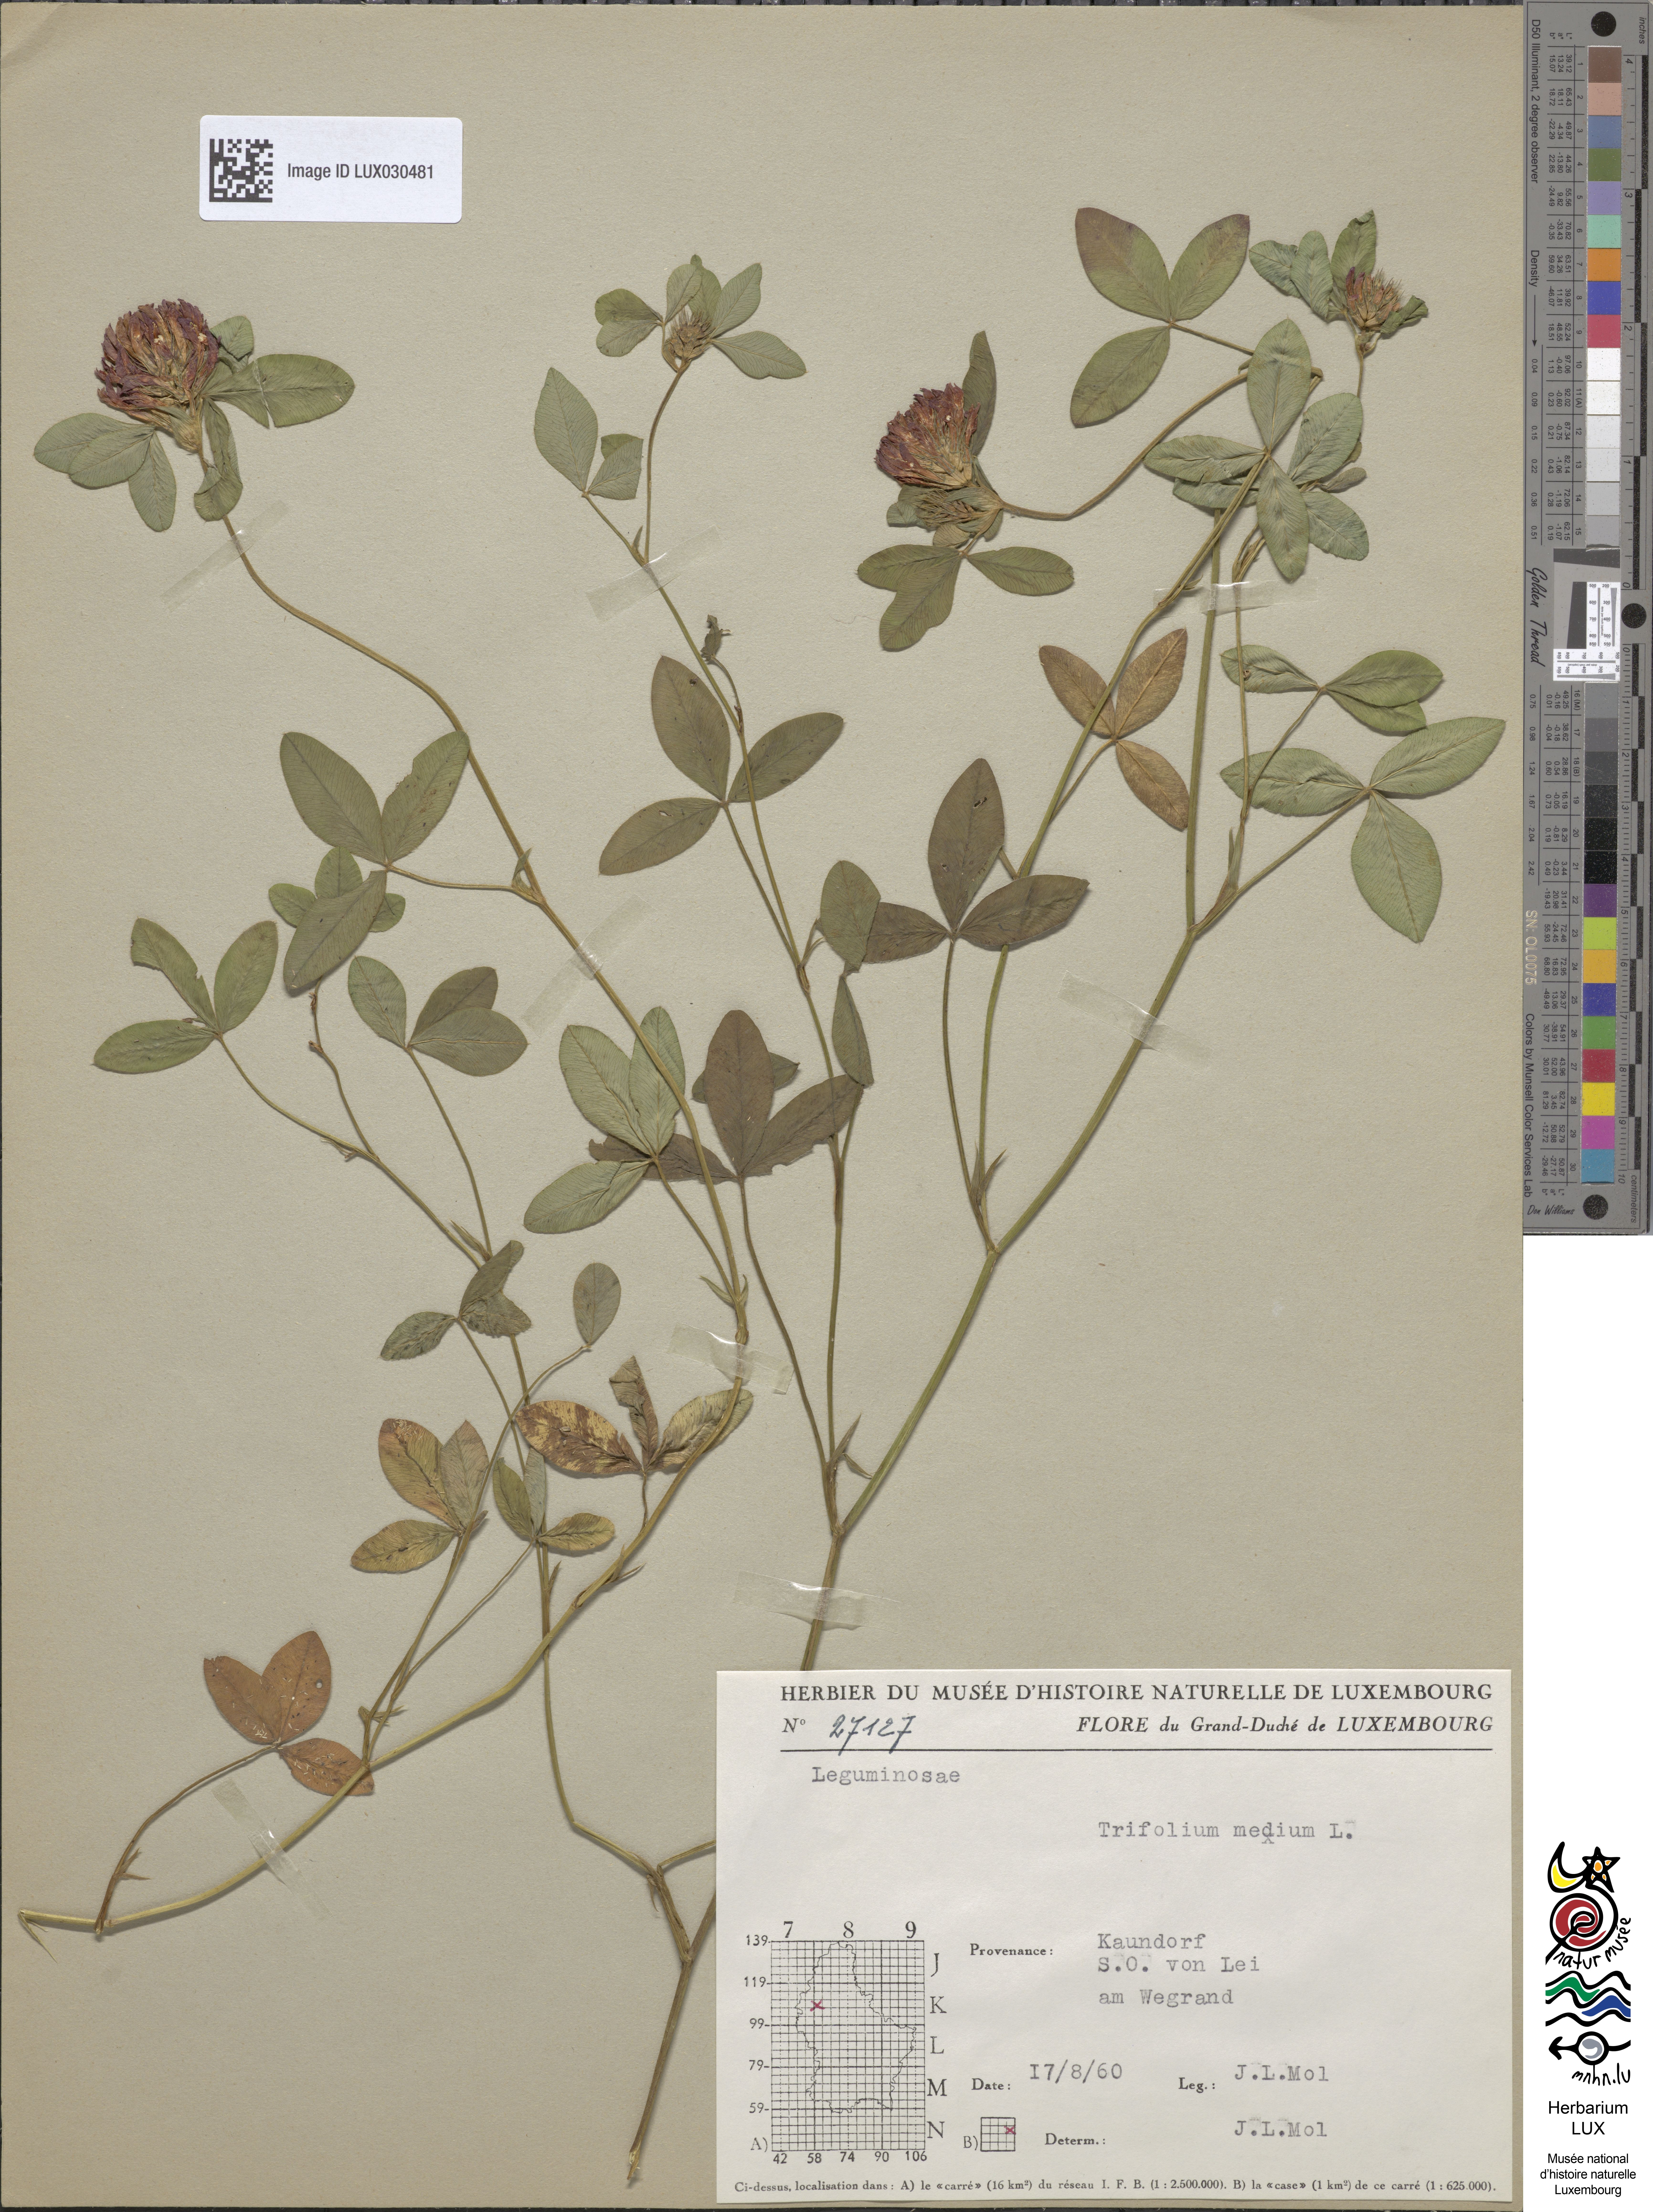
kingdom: Plantae
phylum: Tracheophyta
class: Magnoliopsida
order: Fabales
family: Fabaceae
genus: Trifolium
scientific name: Trifolium medium
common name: Zigzag clover
